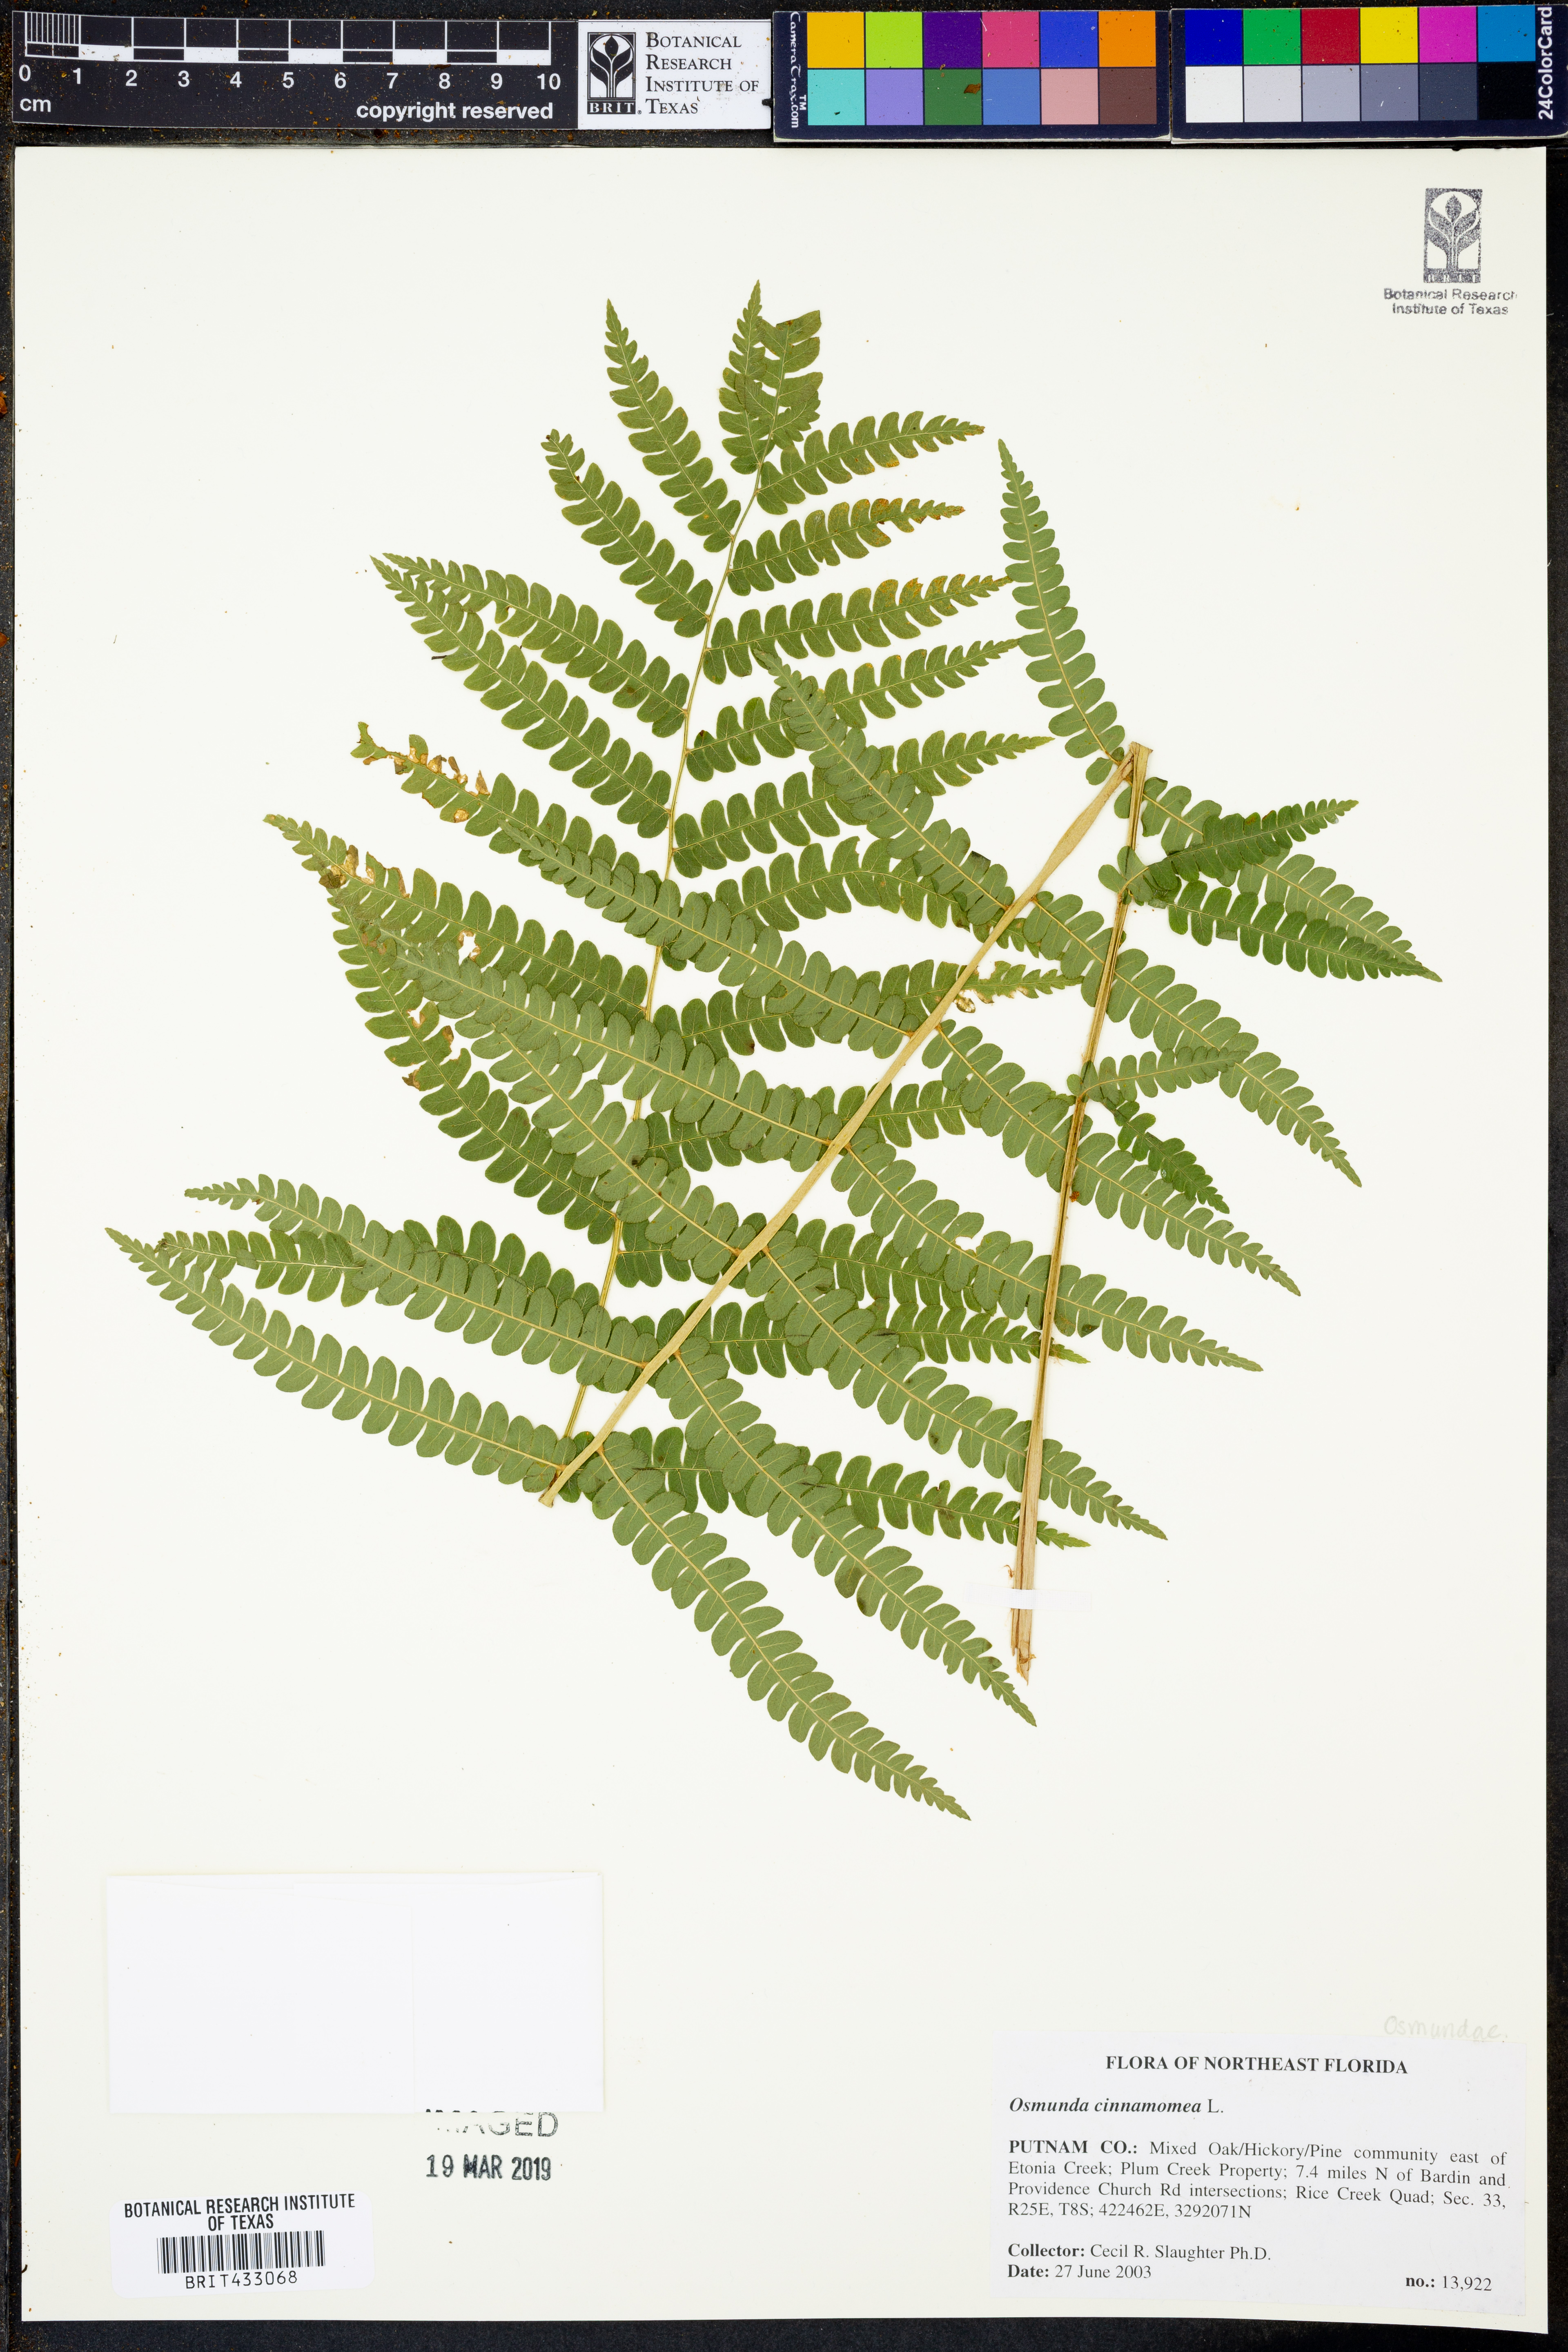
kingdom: Plantae
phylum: Tracheophyta
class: Polypodiopsida
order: Osmundales
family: Osmundaceae
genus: Osmundastrum
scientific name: Osmundastrum cinnamomeum
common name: Cinnamon fern
